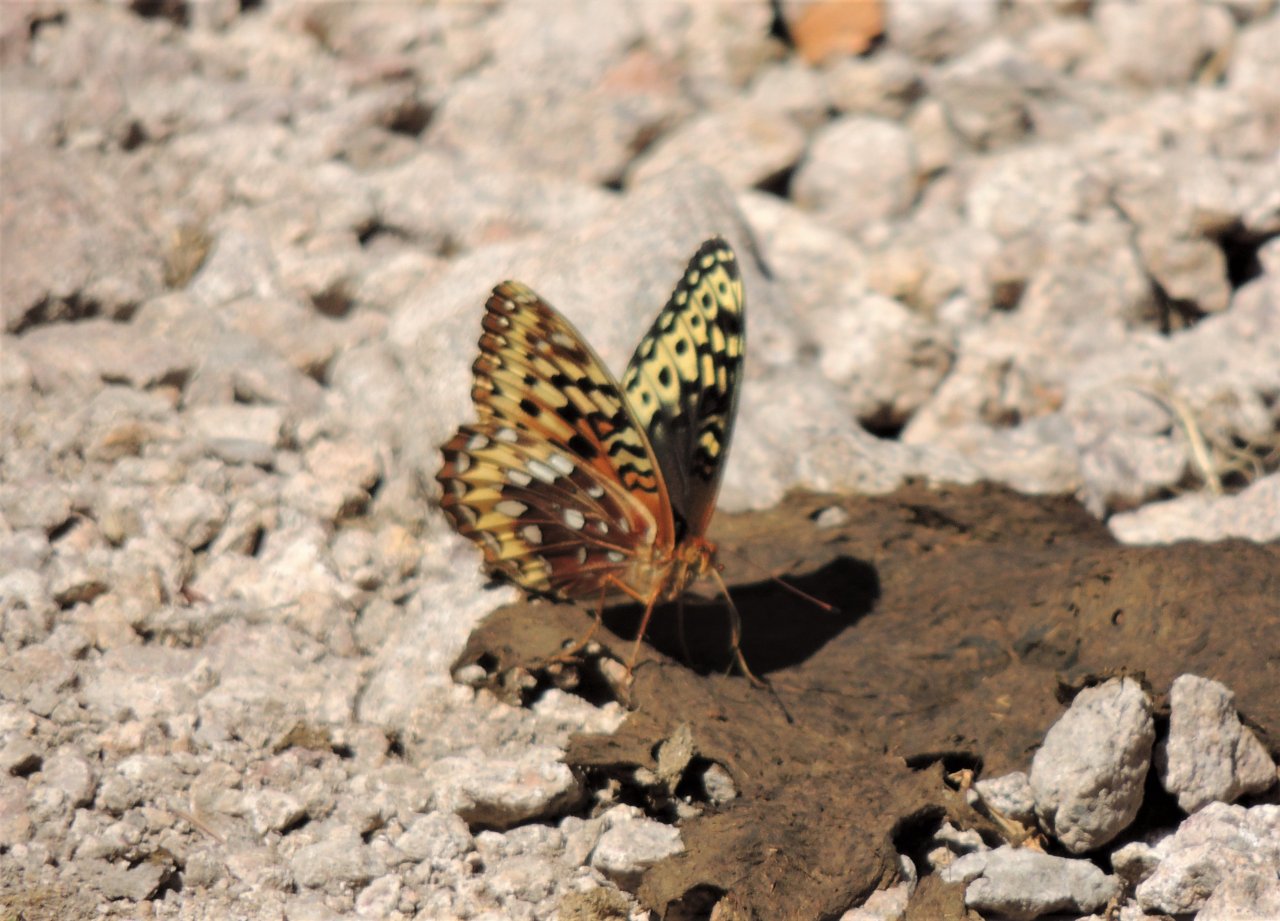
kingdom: Animalia
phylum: Arthropoda
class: Insecta
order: Lepidoptera
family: Nymphalidae
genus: Speyeria
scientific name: Speyeria cybele
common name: Great Spangled Fritillary
